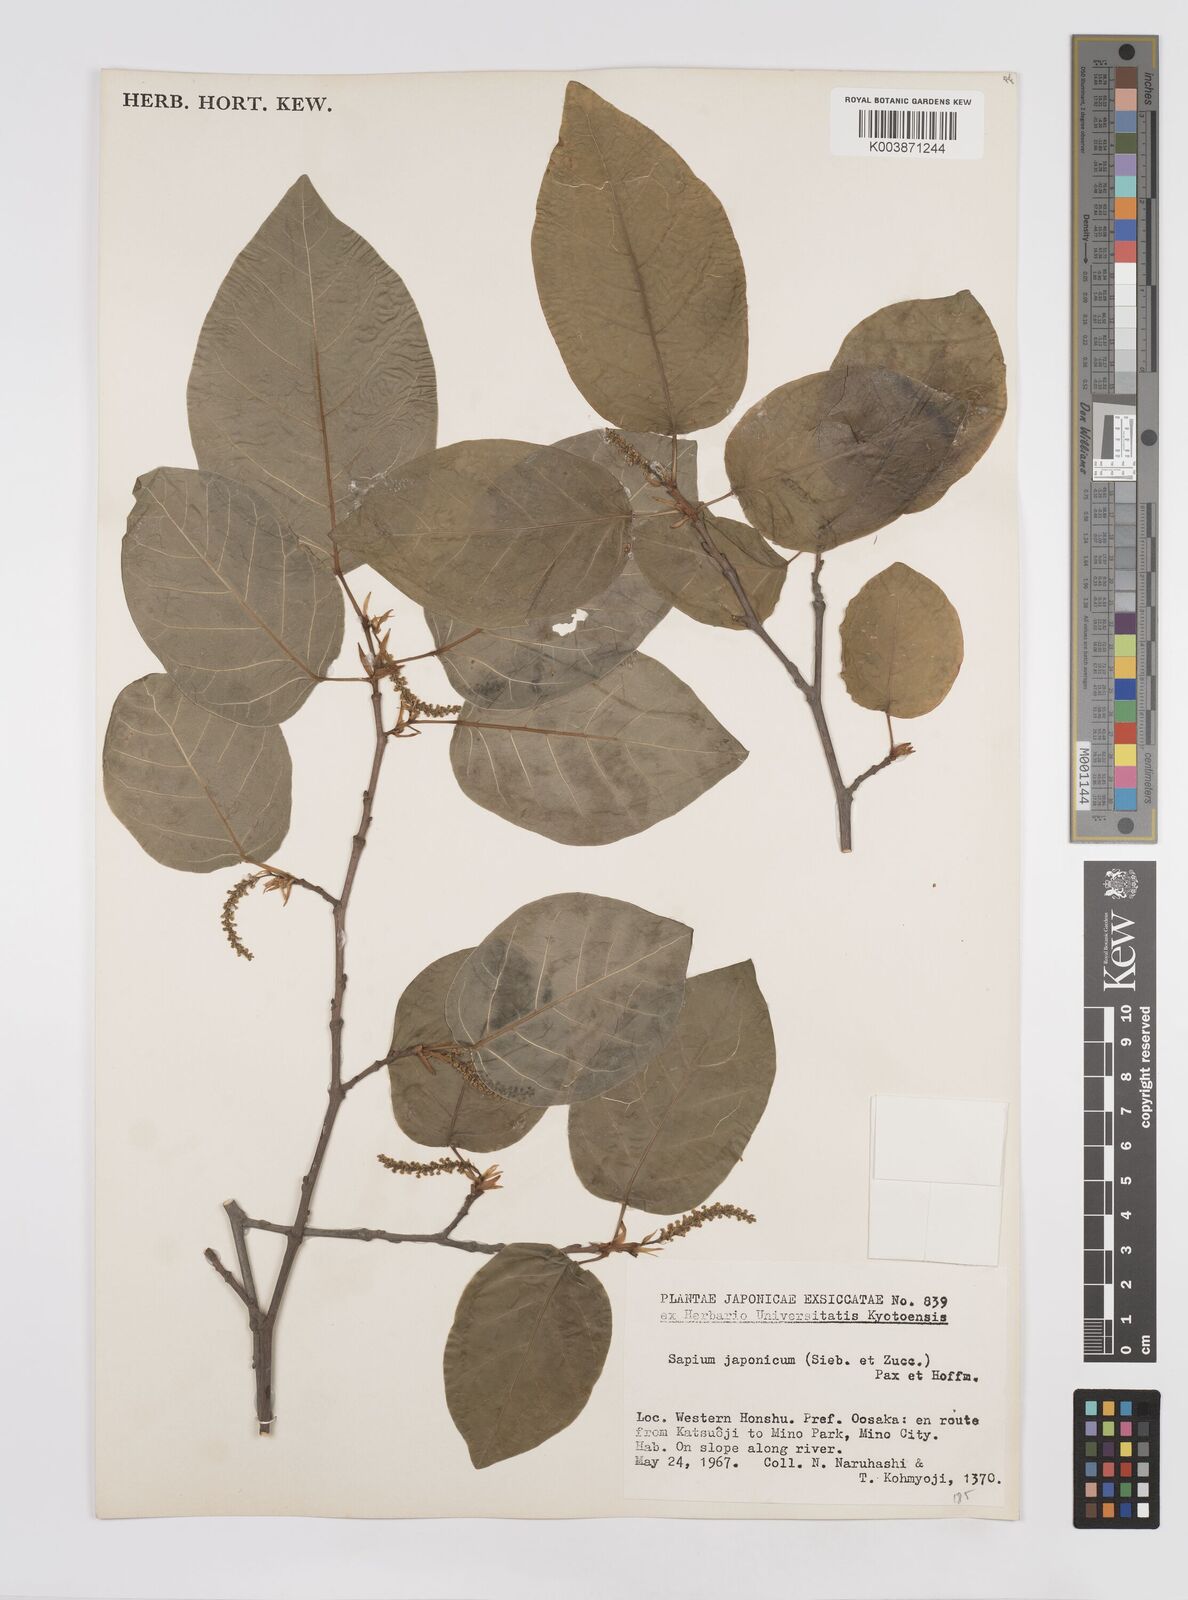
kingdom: Plantae
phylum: Tracheophyta
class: Magnoliopsida
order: Malpighiales
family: Euphorbiaceae
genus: Neoshirakia
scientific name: Neoshirakia japonica
